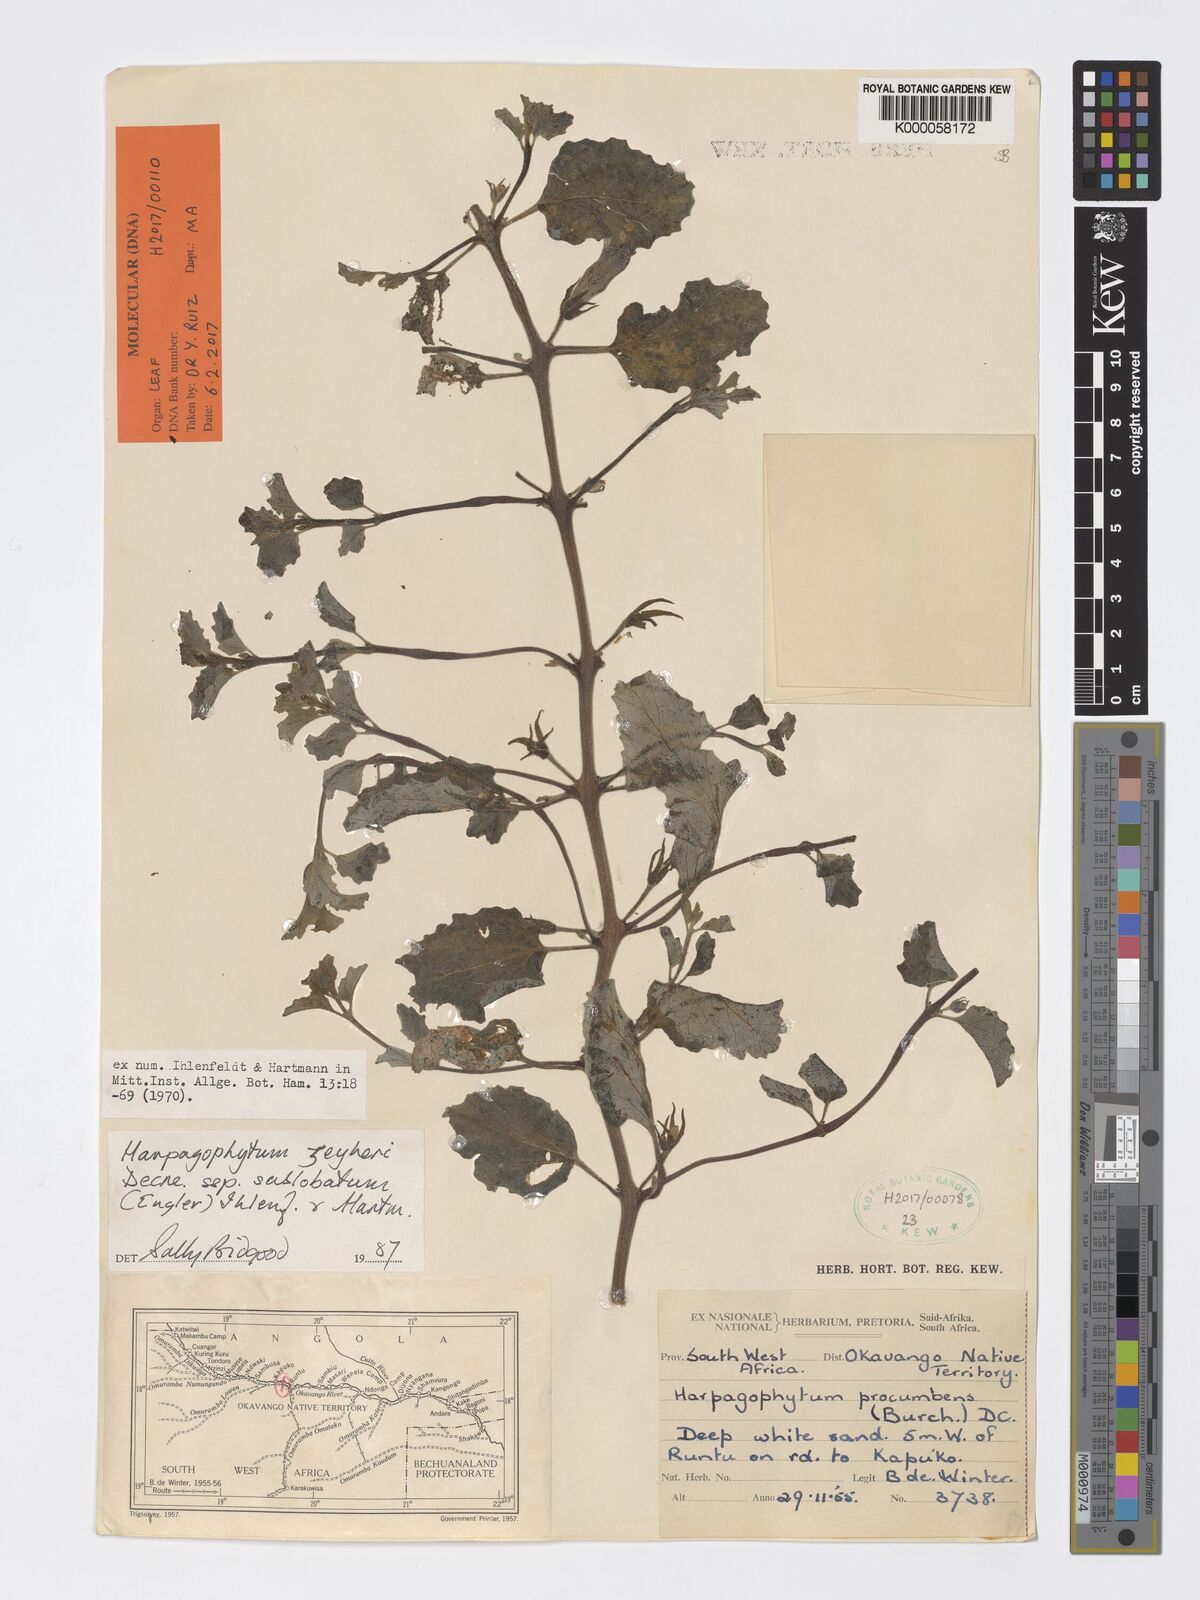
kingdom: Plantae
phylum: Tracheophyta
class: Magnoliopsida
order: Lamiales
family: Pedaliaceae
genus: Harpagophytum
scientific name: Harpagophytum zeyheri
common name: Grappleplant
